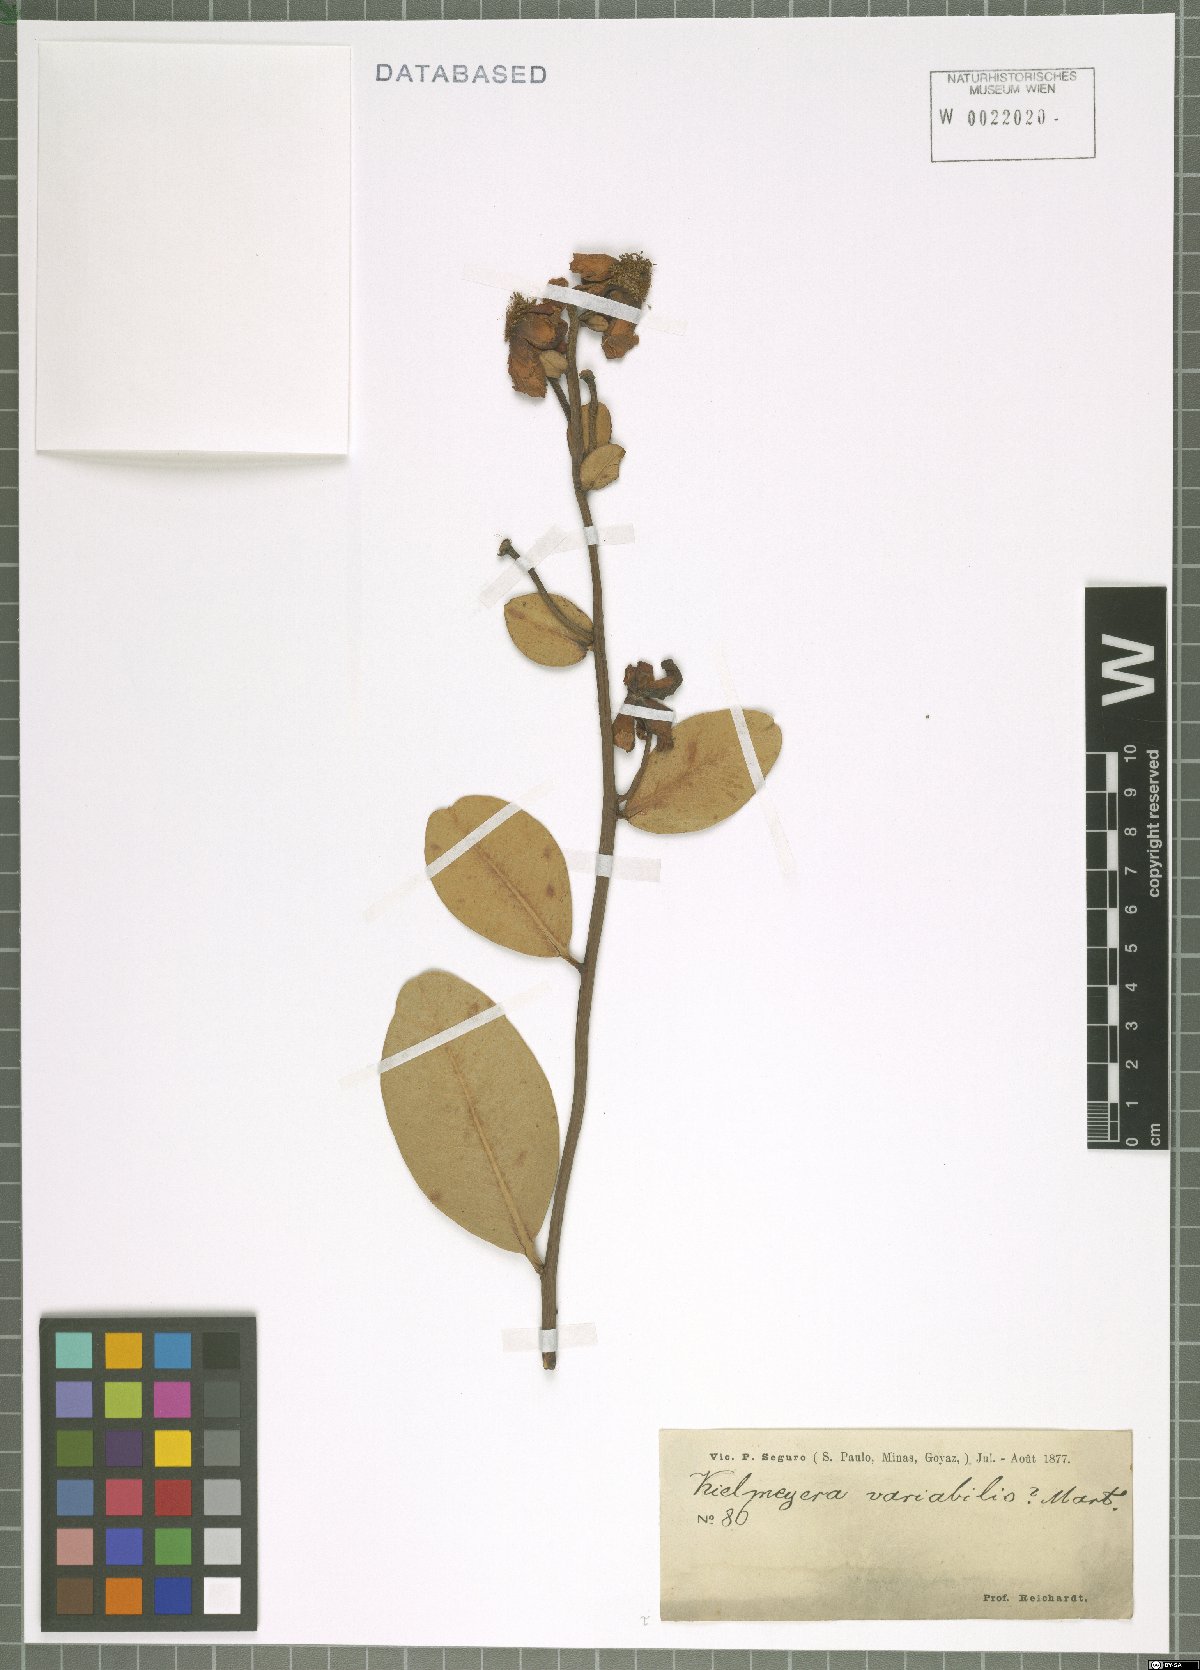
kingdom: Plantae
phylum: Tracheophyta
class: Magnoliopsida
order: Malpighiales
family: Calophyllaceae
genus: Kielmeyera
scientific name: Kielmeyera variabilis
